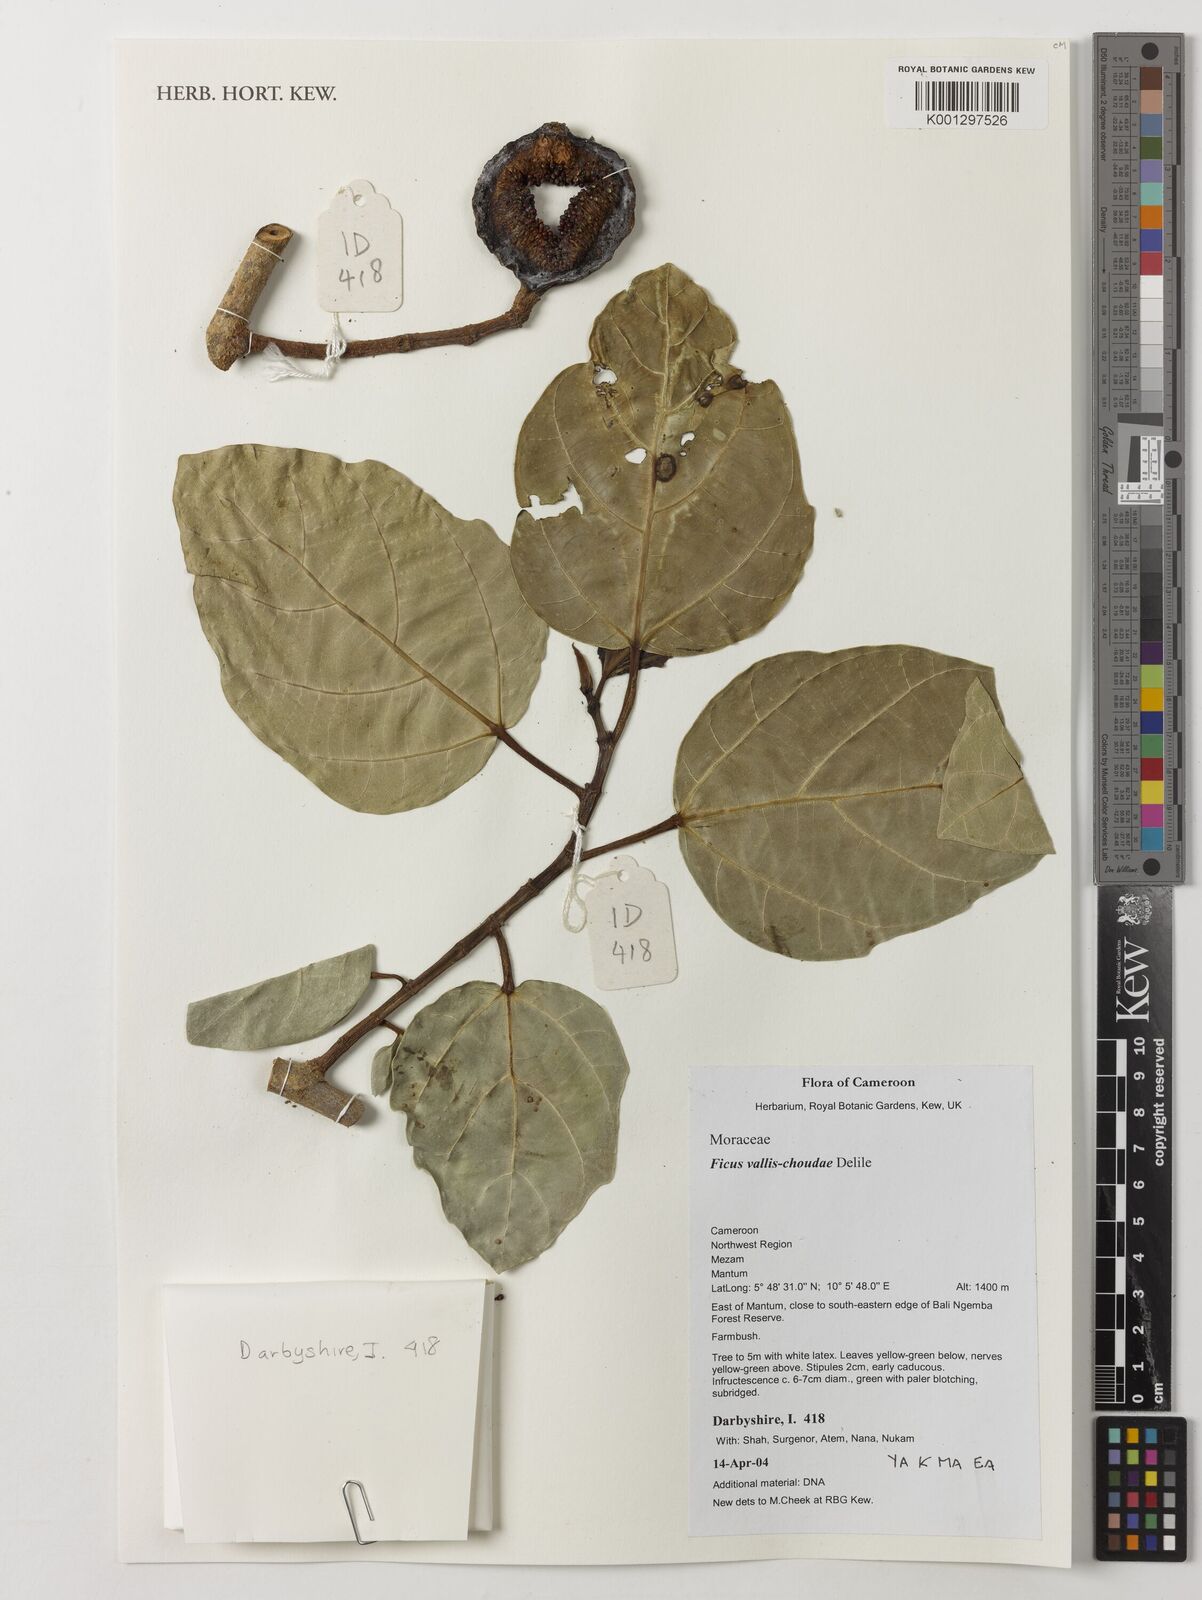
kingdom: Plantae
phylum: Tracheophyta
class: Magnoliopsida
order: Rosales
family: Moraceae
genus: Ficus
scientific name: Ficus vallis-choudae
